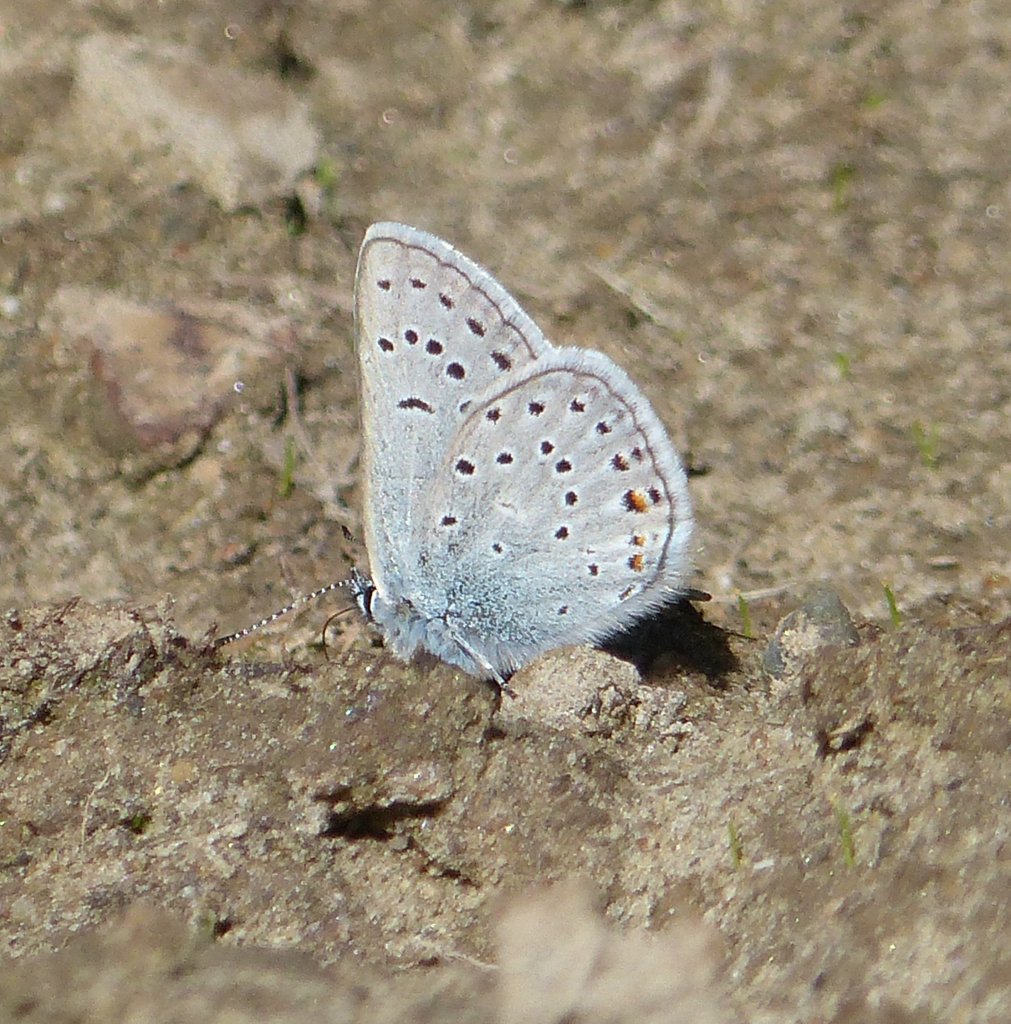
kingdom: Animalia
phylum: Arthropoda
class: Insecta
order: Lepidoptera
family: Lycaenidae
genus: Plebejus
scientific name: Plebejus saepiolus
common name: Greenish Blue
